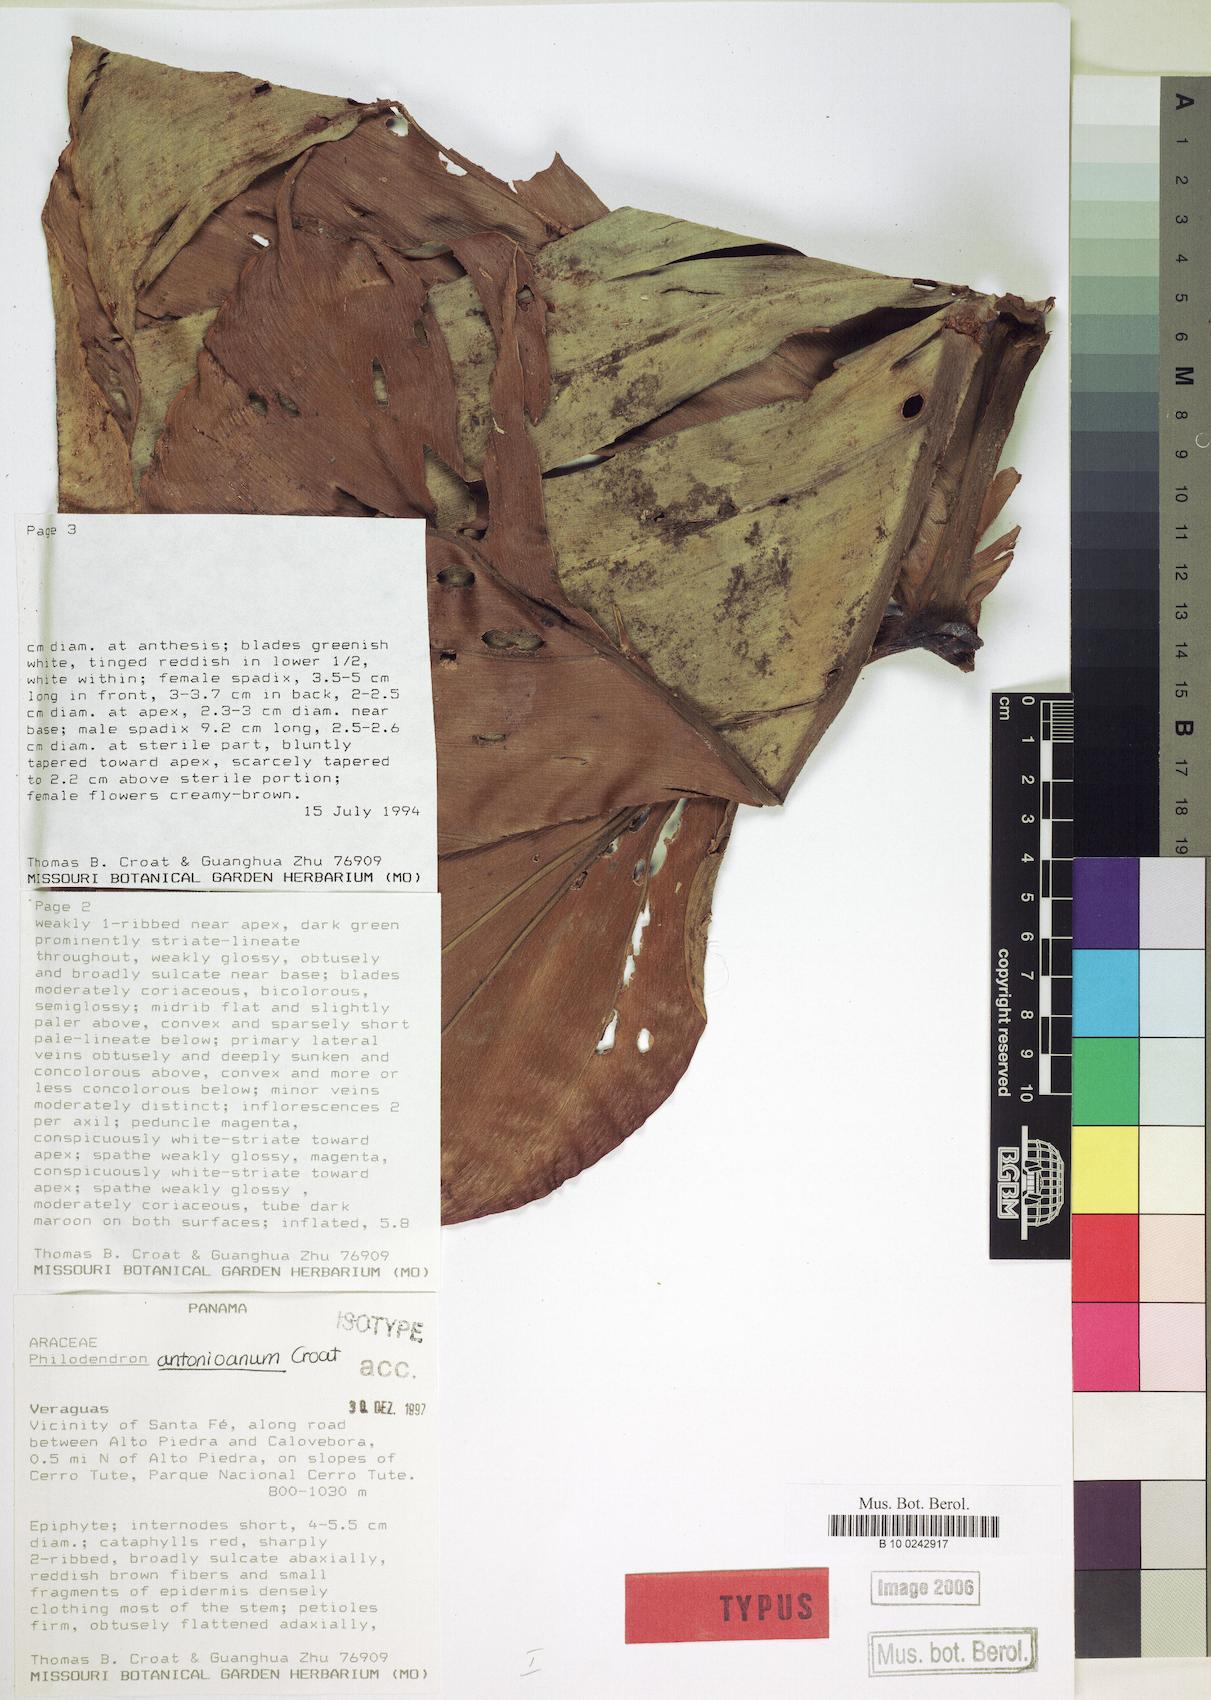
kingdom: Plantae
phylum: Tracheophyta
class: Liliopsida
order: Alismatales
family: Araceae
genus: Philodendron
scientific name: Philodendron antonioanum
